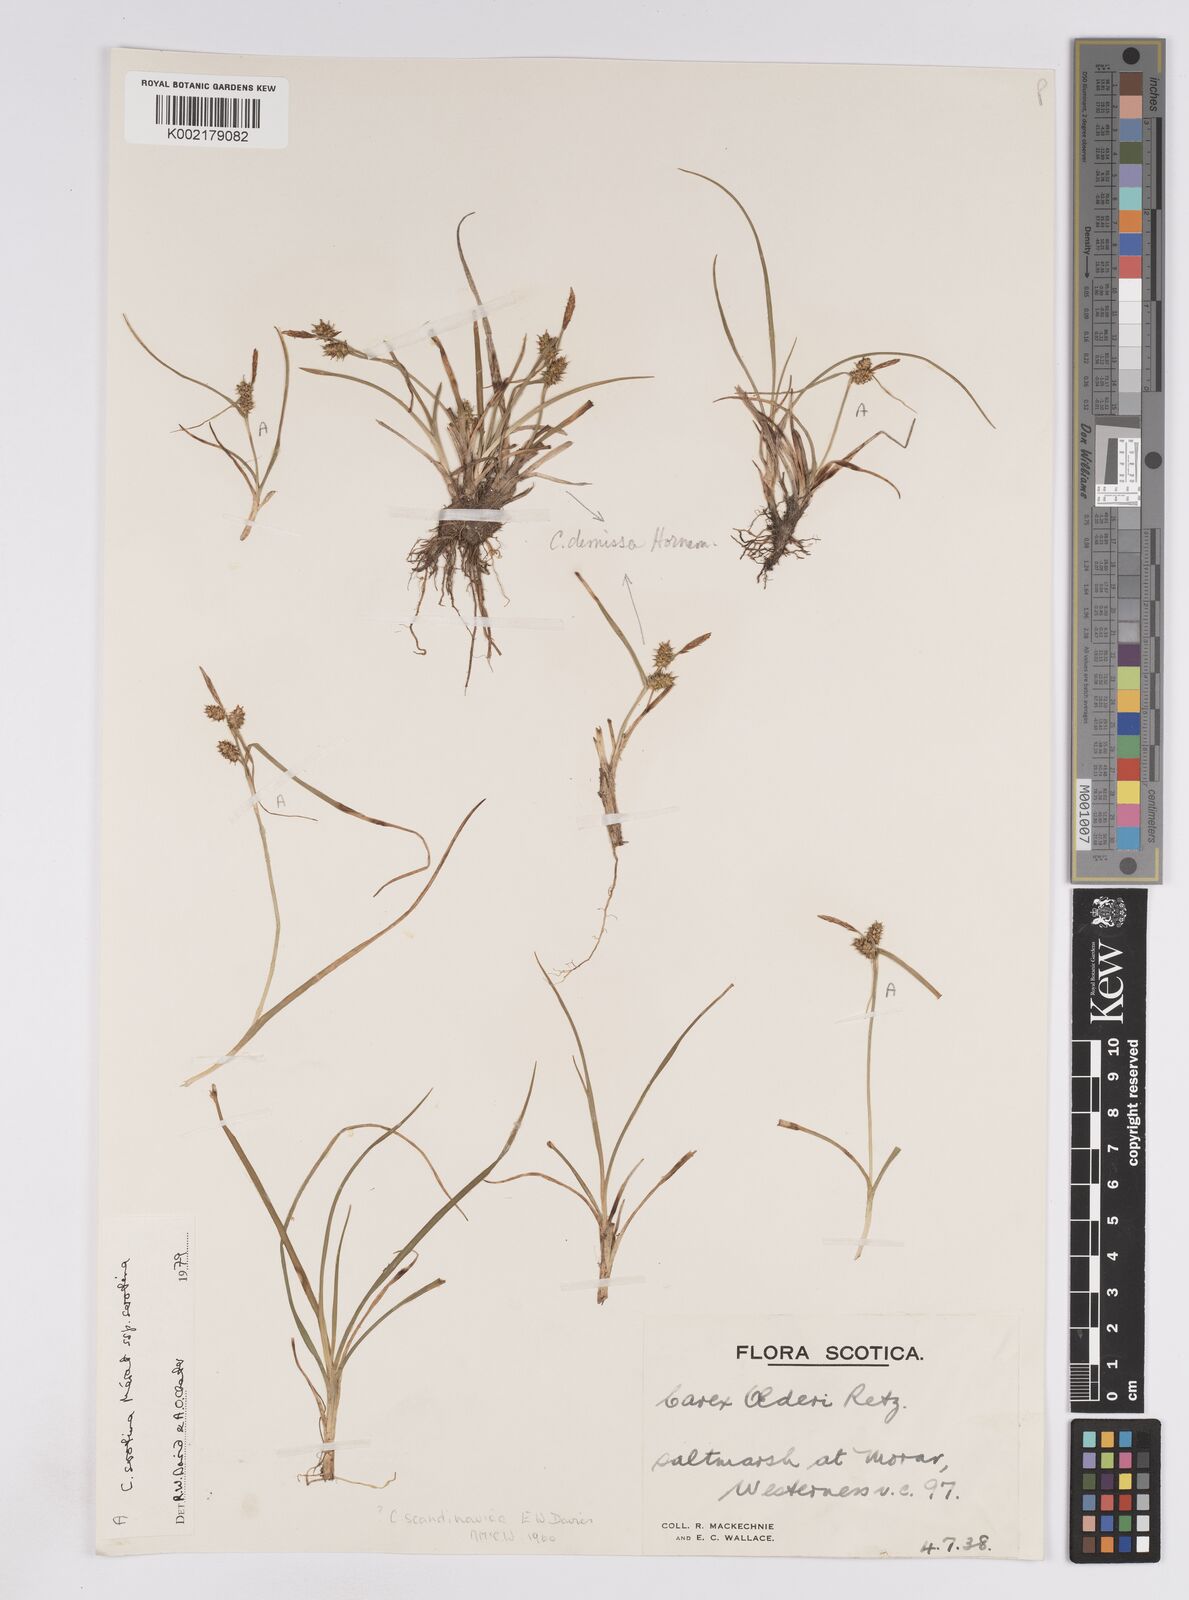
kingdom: Plantae
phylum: Tracheophyta
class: Liliopsida
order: Poales
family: Cyperaceae
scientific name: Cyperaceae
